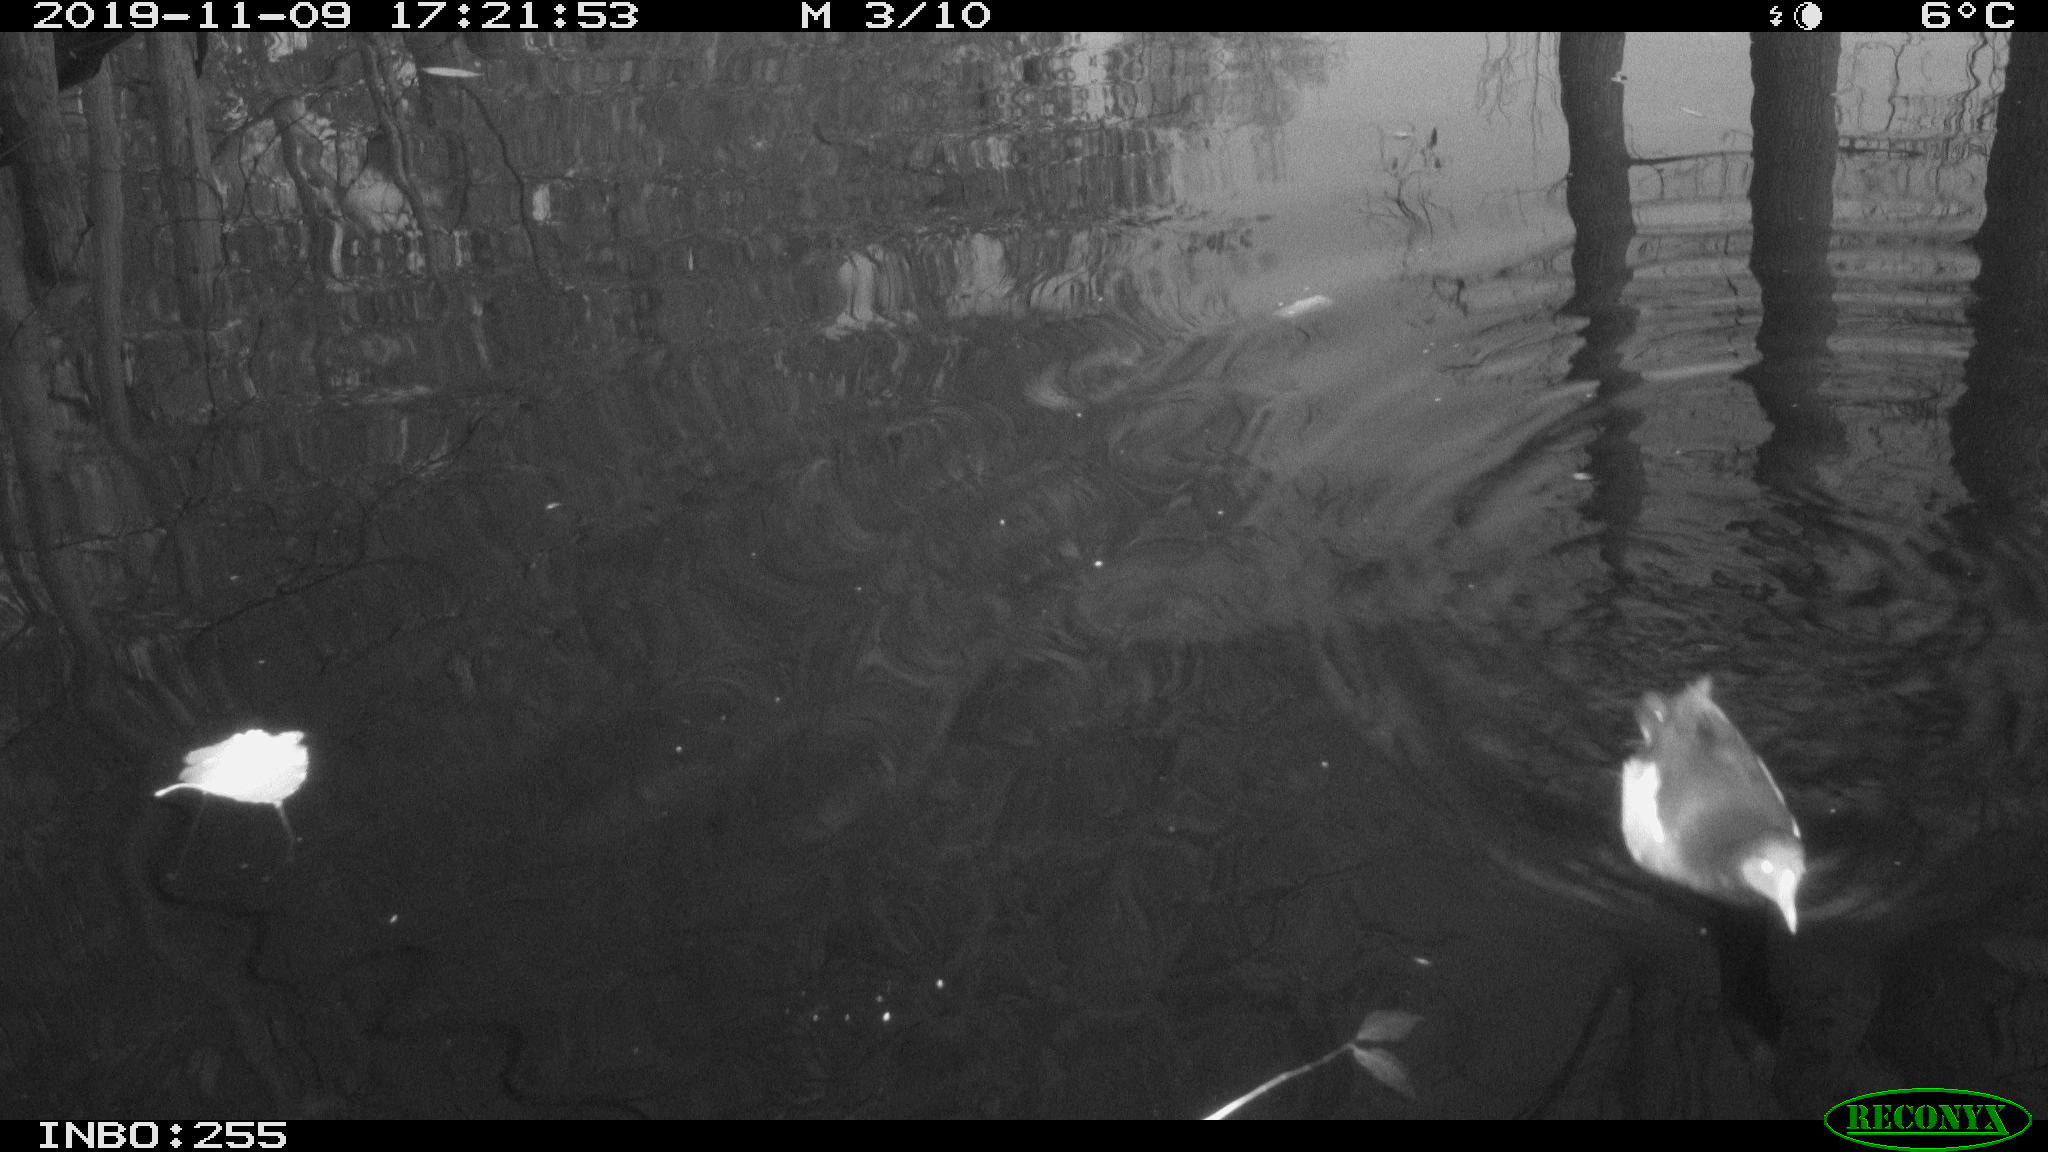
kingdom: Animalia
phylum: Chordata
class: Aves
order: Gruiformes
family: Rallidae
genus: Gallinula
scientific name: Gallinula chloropus
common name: Common moorhen
